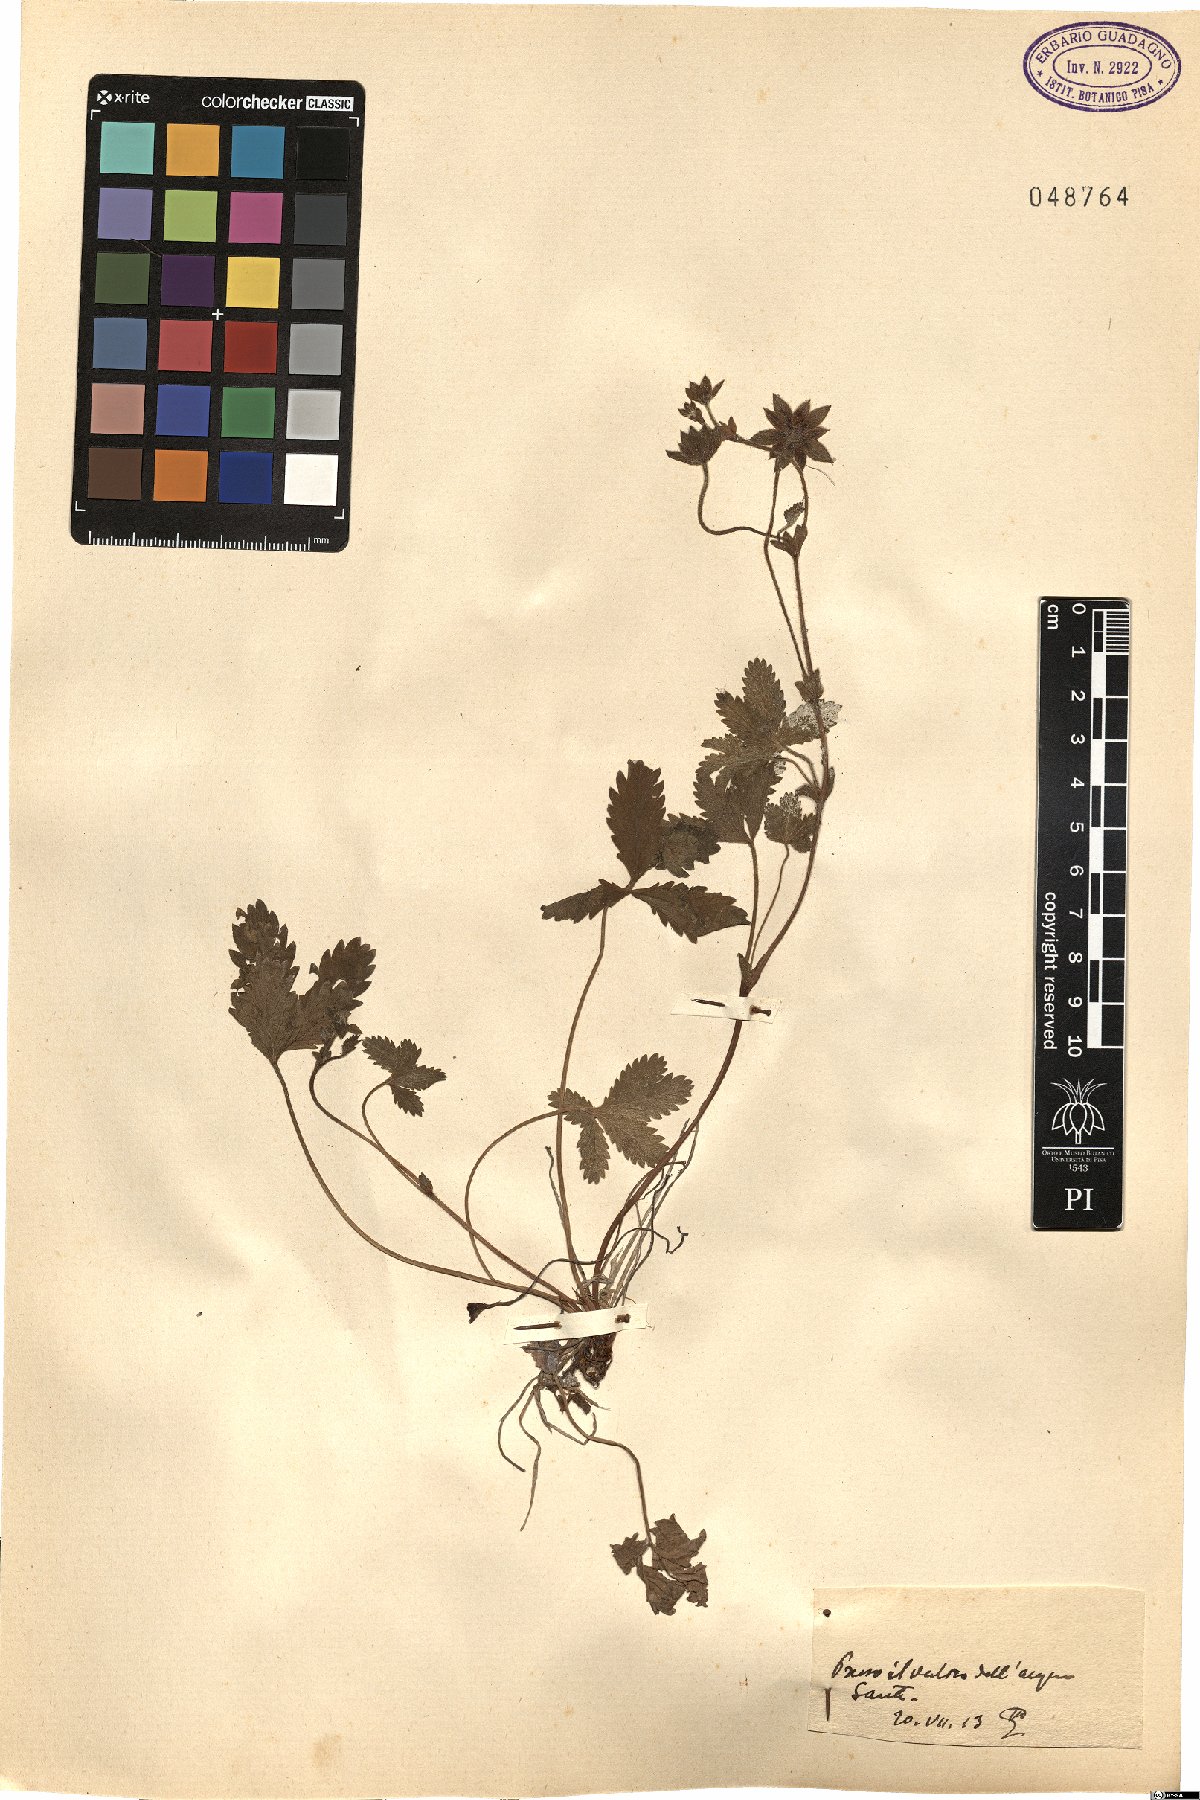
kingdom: Plantae
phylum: Tracheophyta
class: Magnoliopsida
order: Rosales
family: Rosaceae
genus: Potentilla
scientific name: Potentilla
